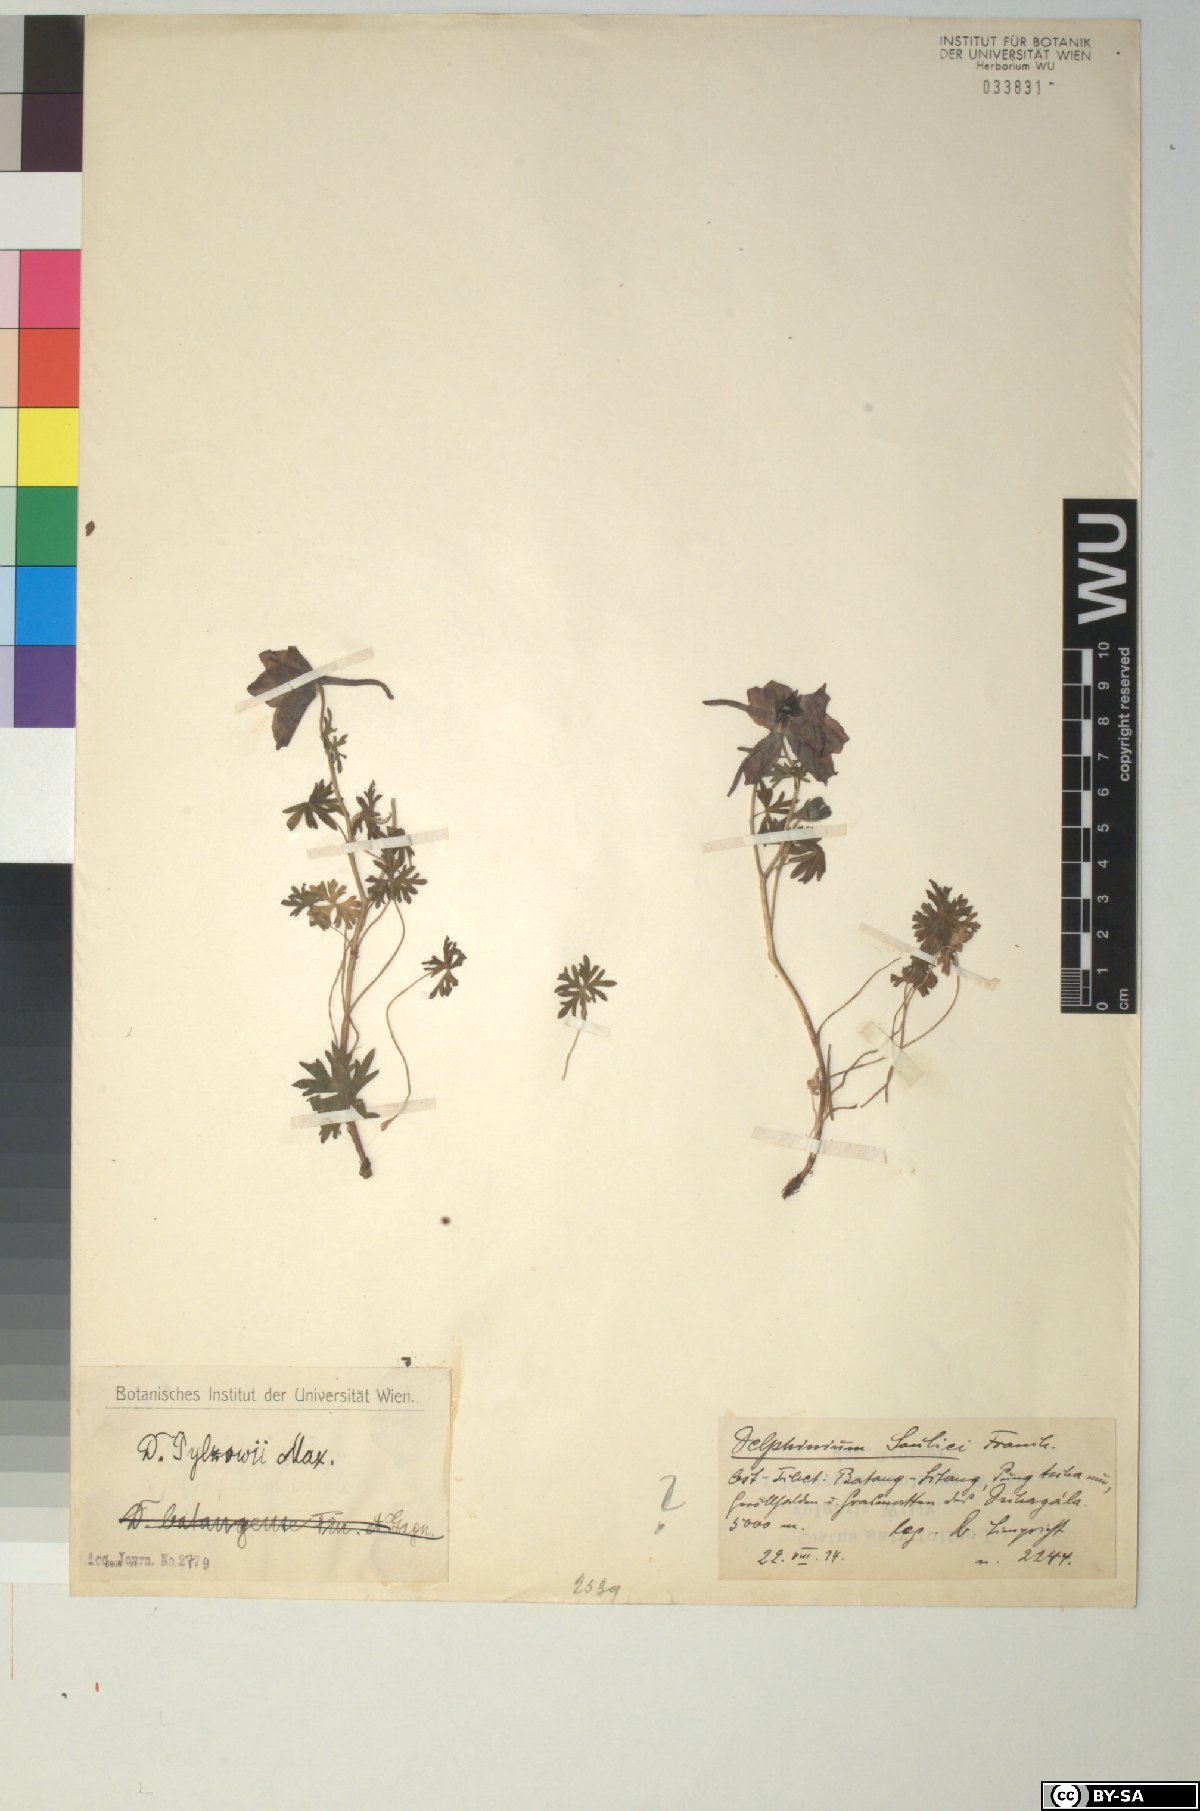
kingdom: Plantae
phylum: Tracheophyta
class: Magnoliopsida
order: Ranunculales
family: Ranunculaceae
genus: Delphinium
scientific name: Delphinium pylzowii
